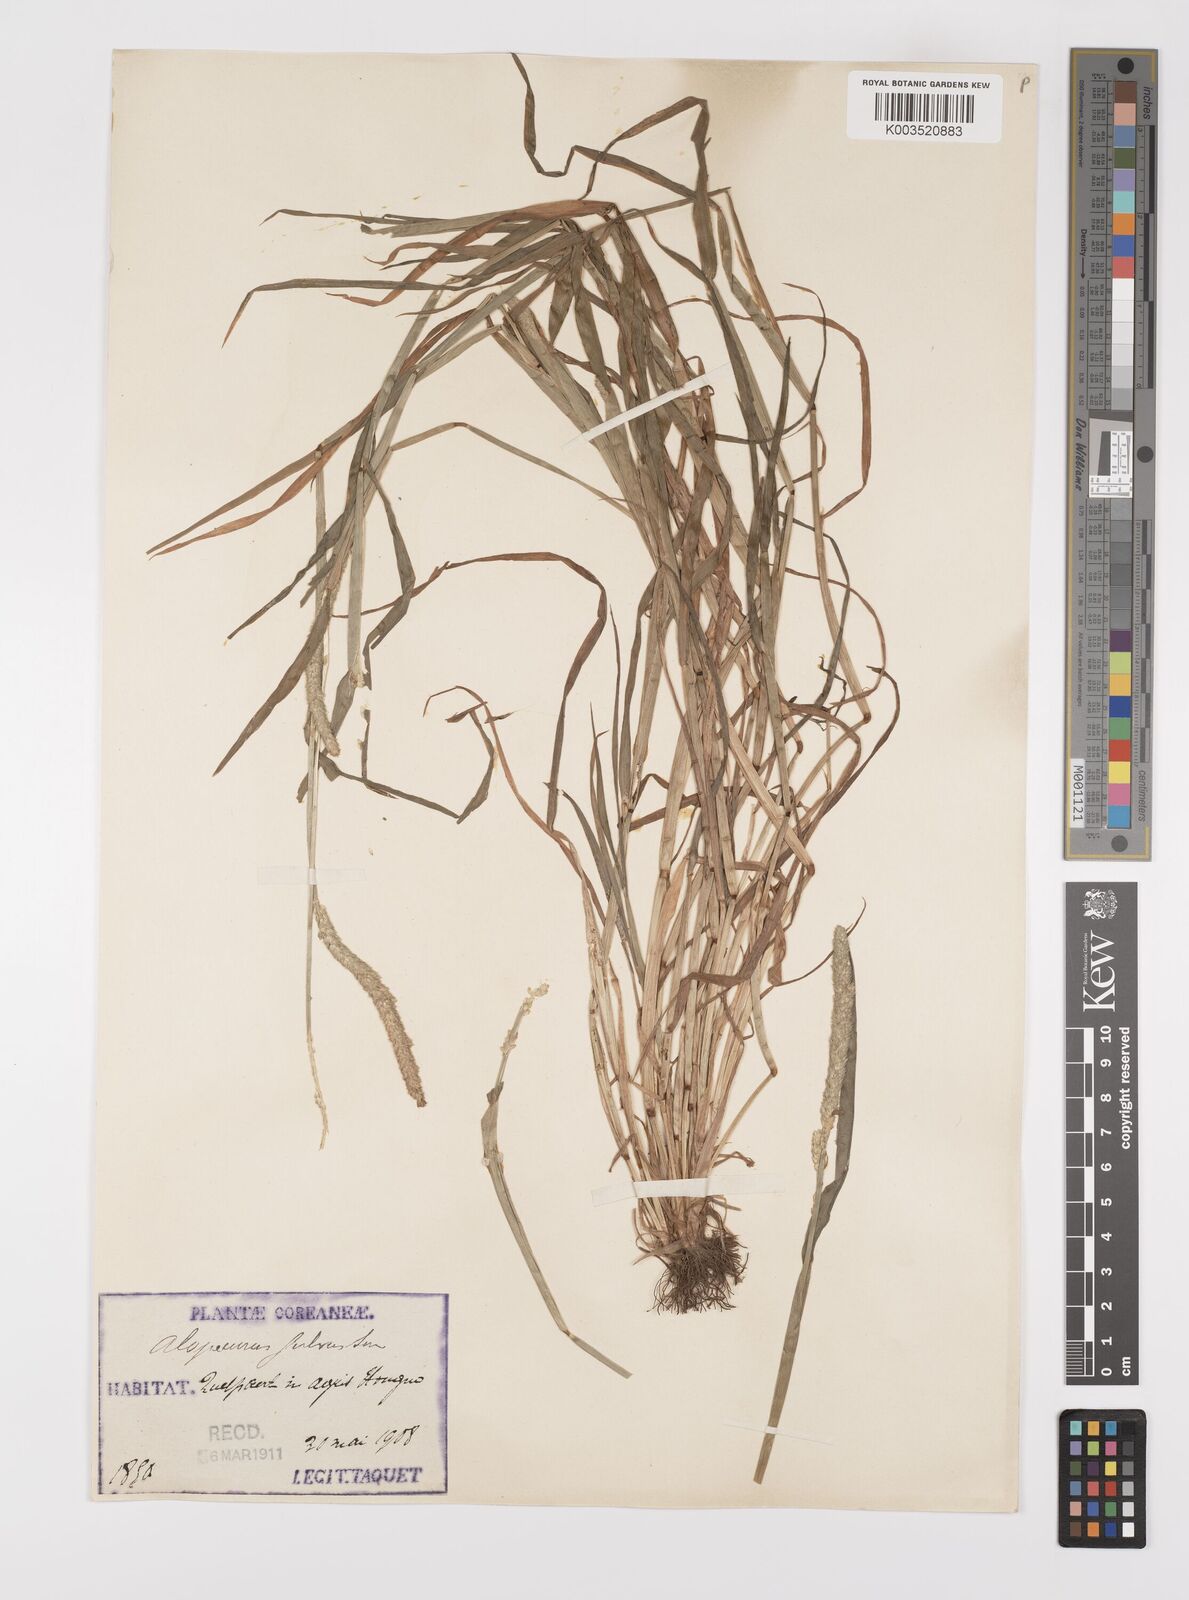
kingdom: Plantae
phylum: Tracheophyta
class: Liliopsida
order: Poales
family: Poaceae
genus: Alopecurus
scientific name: Alopecurus aequalis
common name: Orange foxtail
